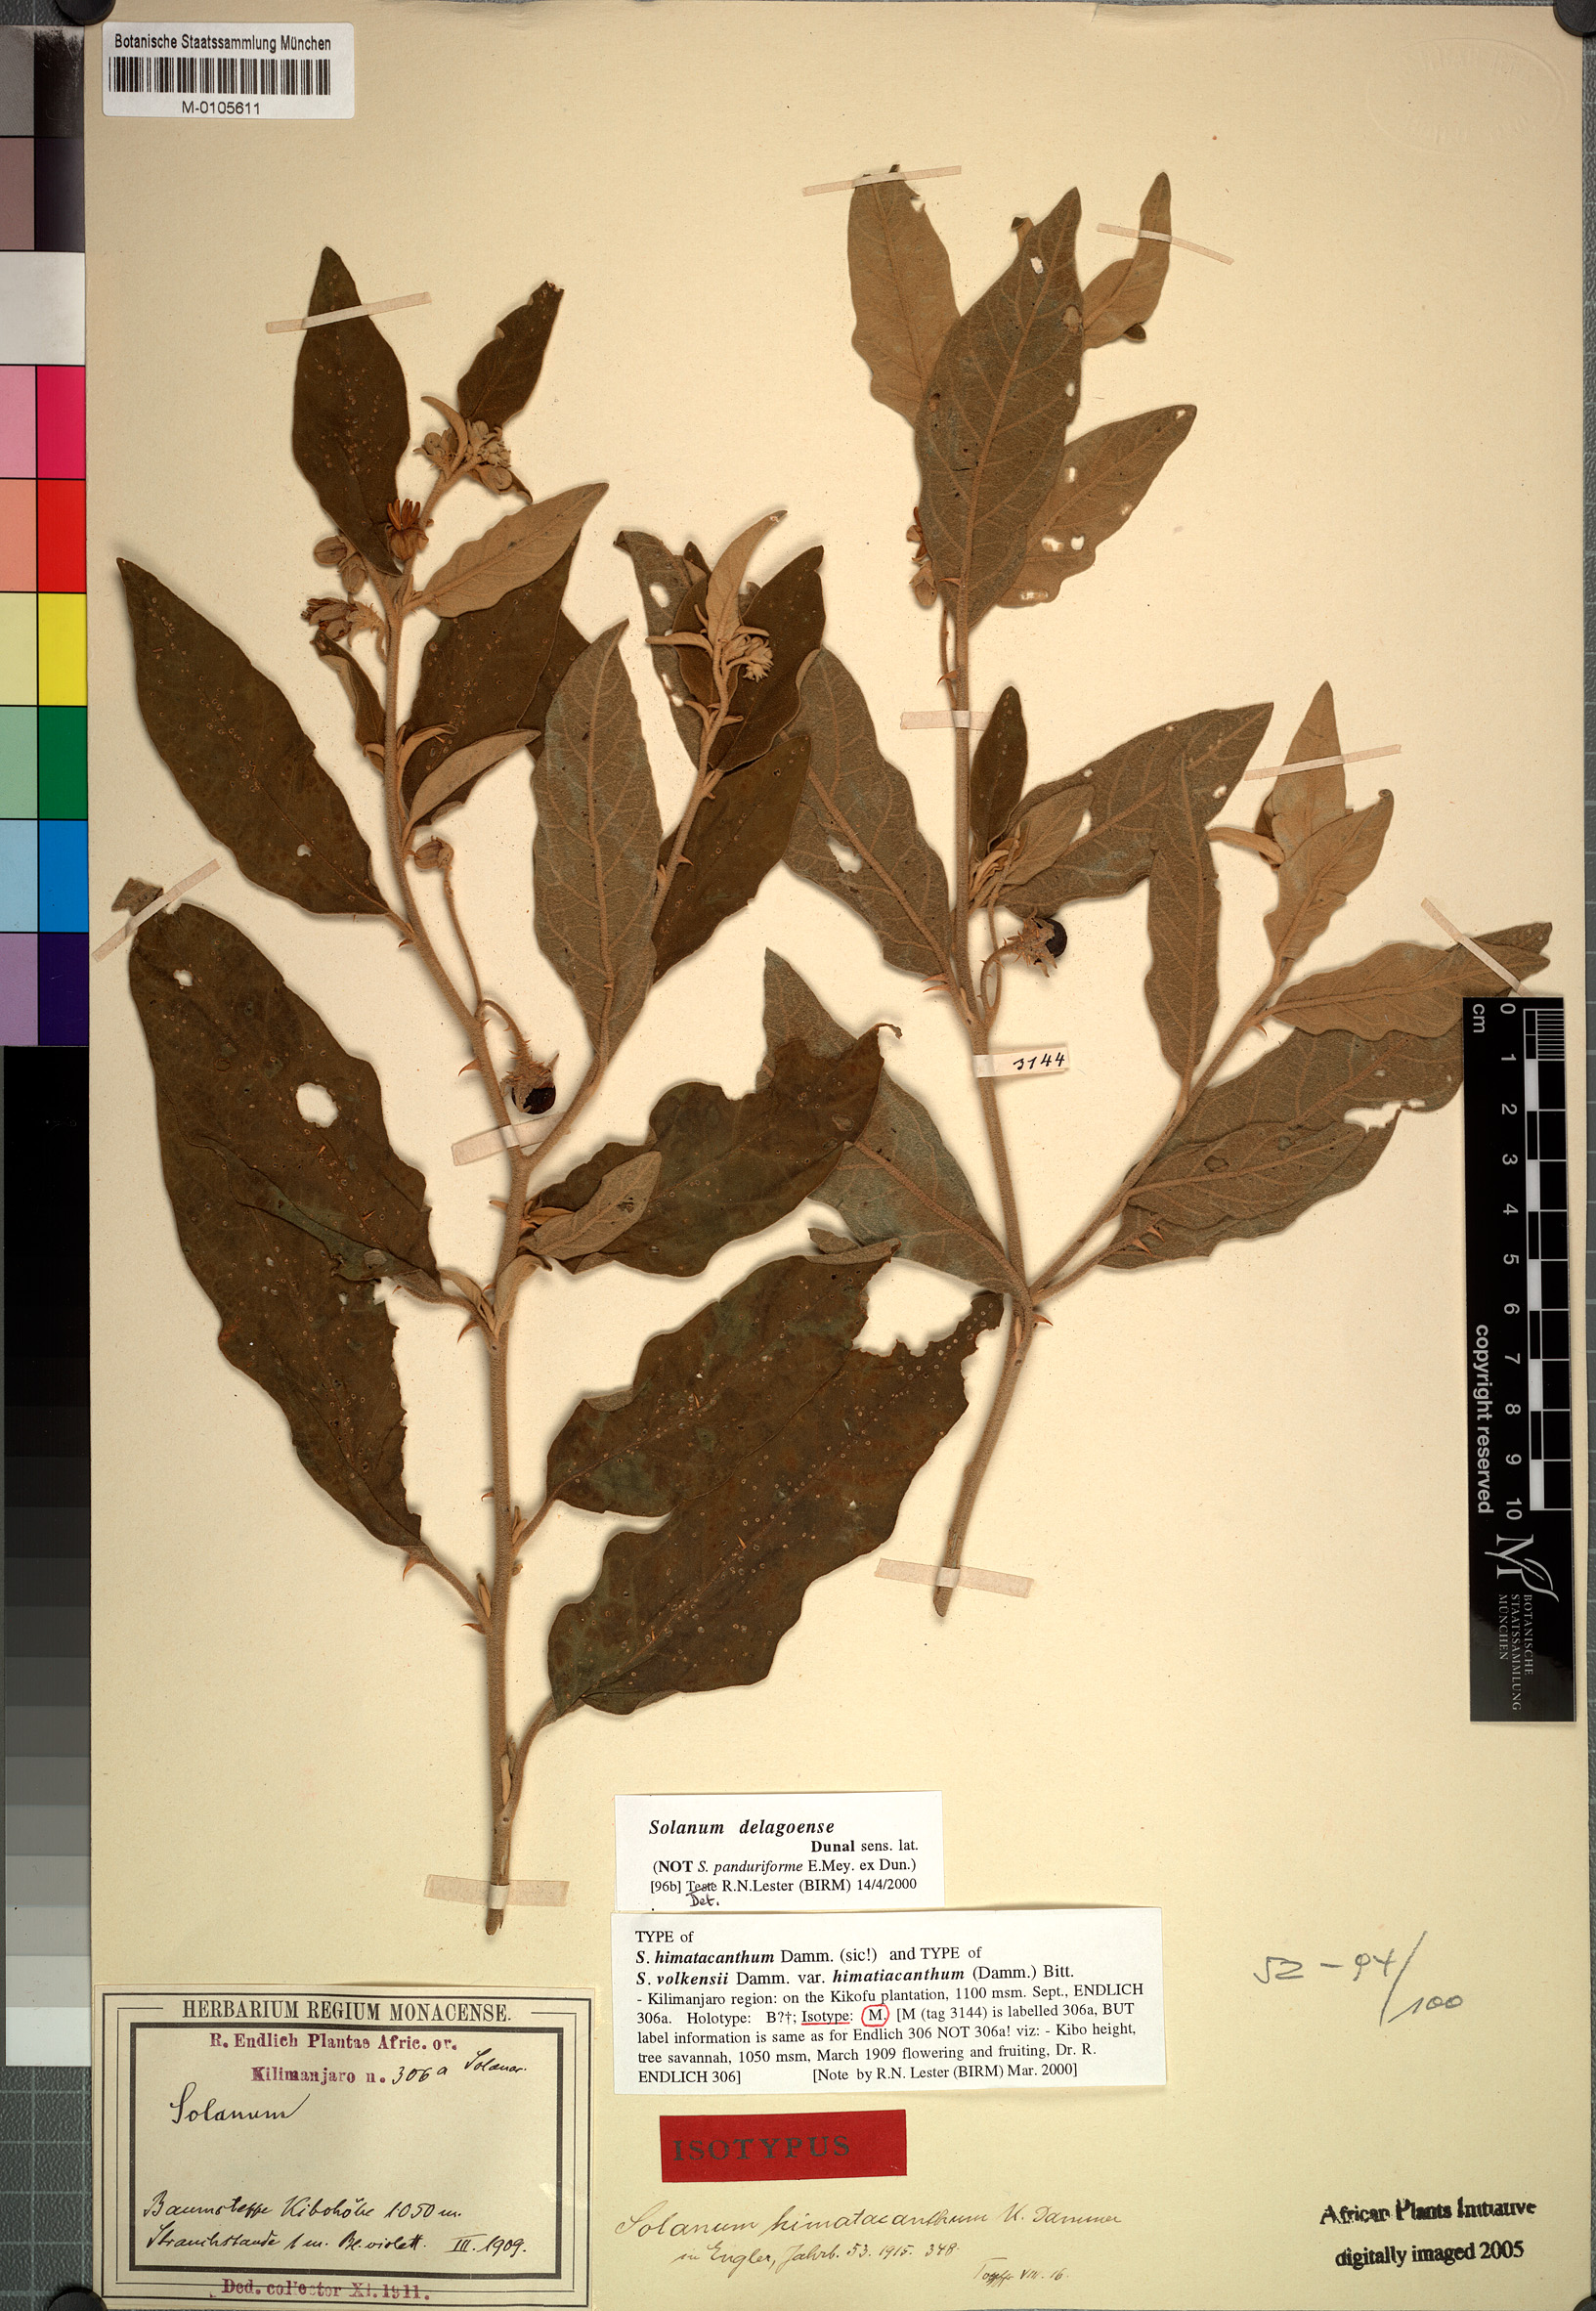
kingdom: Plantae
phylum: Tracheophyta
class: Magnoliopsida
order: Solanales
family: Solanaceae
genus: Solanum
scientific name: Solanum campylacanthum
